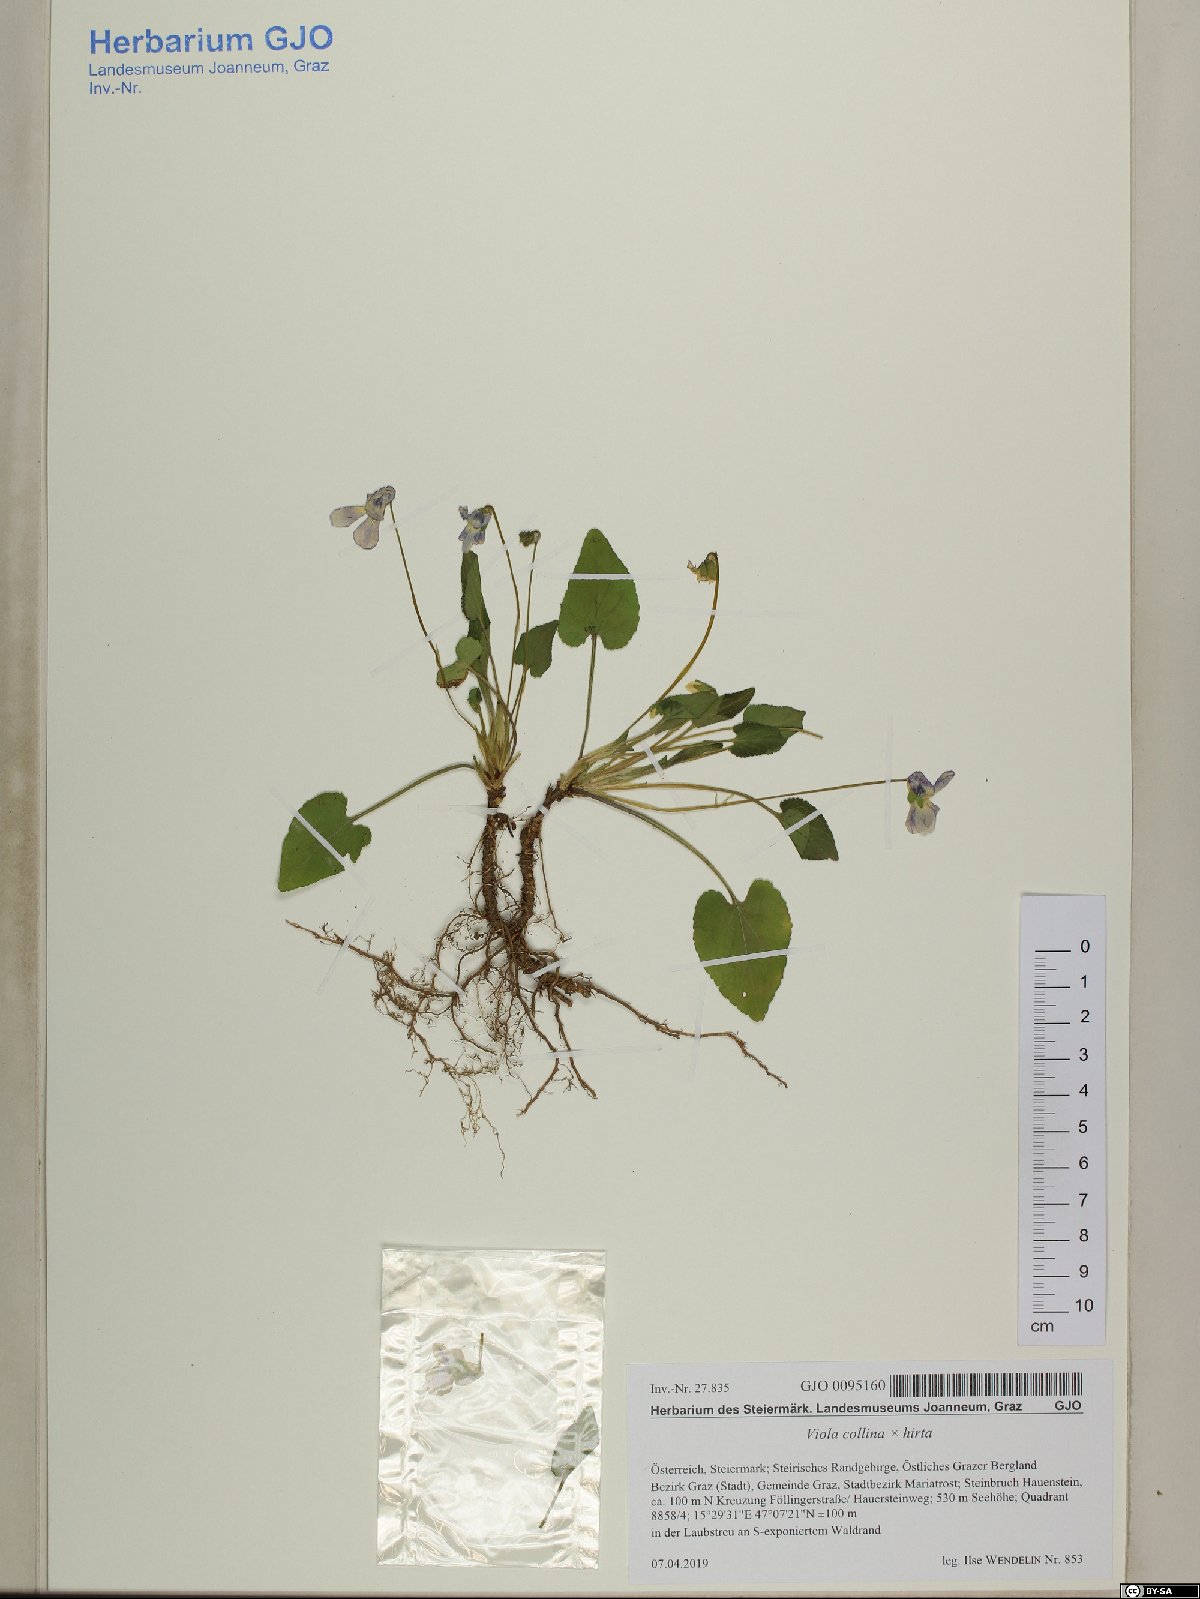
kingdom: Plantae
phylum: Tracheophyta
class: Magnoliopsida
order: Malpighiales
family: Violaceae
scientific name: Violaceae
